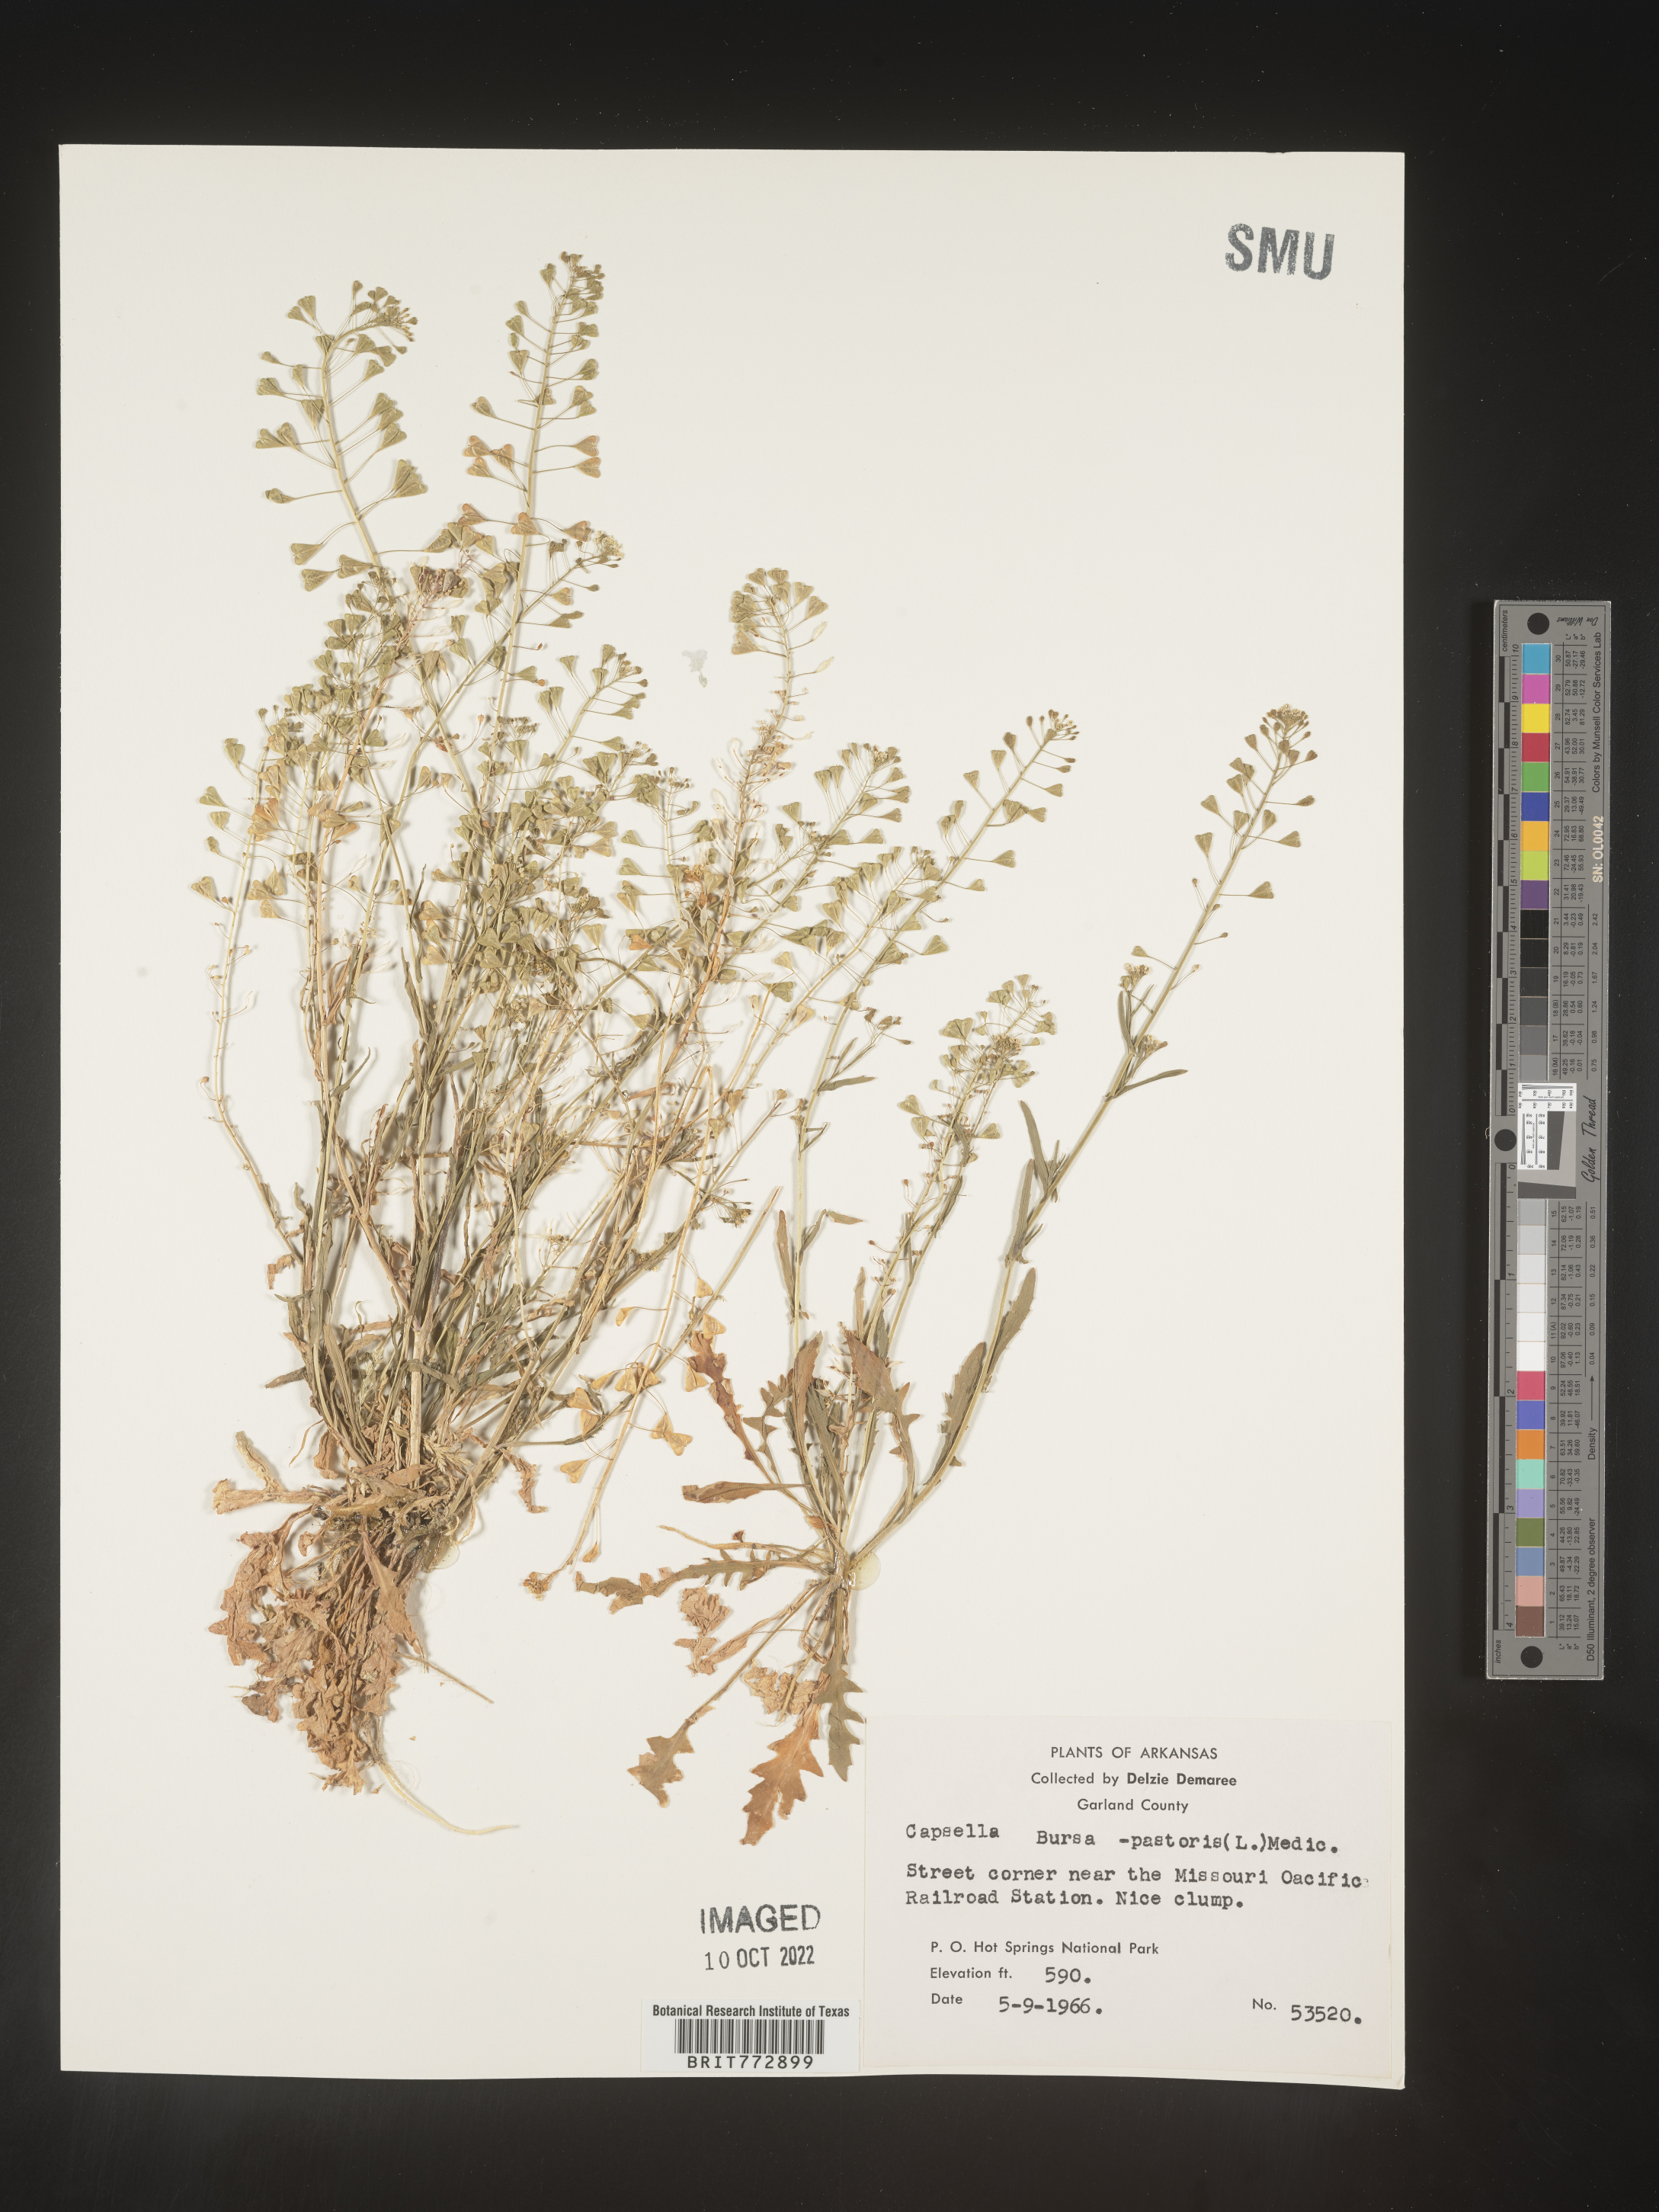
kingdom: Plantae
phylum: Tracheophyta
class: Magnoliopsida
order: Brassicales
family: Brassicaceae
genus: Capsella
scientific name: Capsella bursa-pastoris
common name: Shepherd's purse
